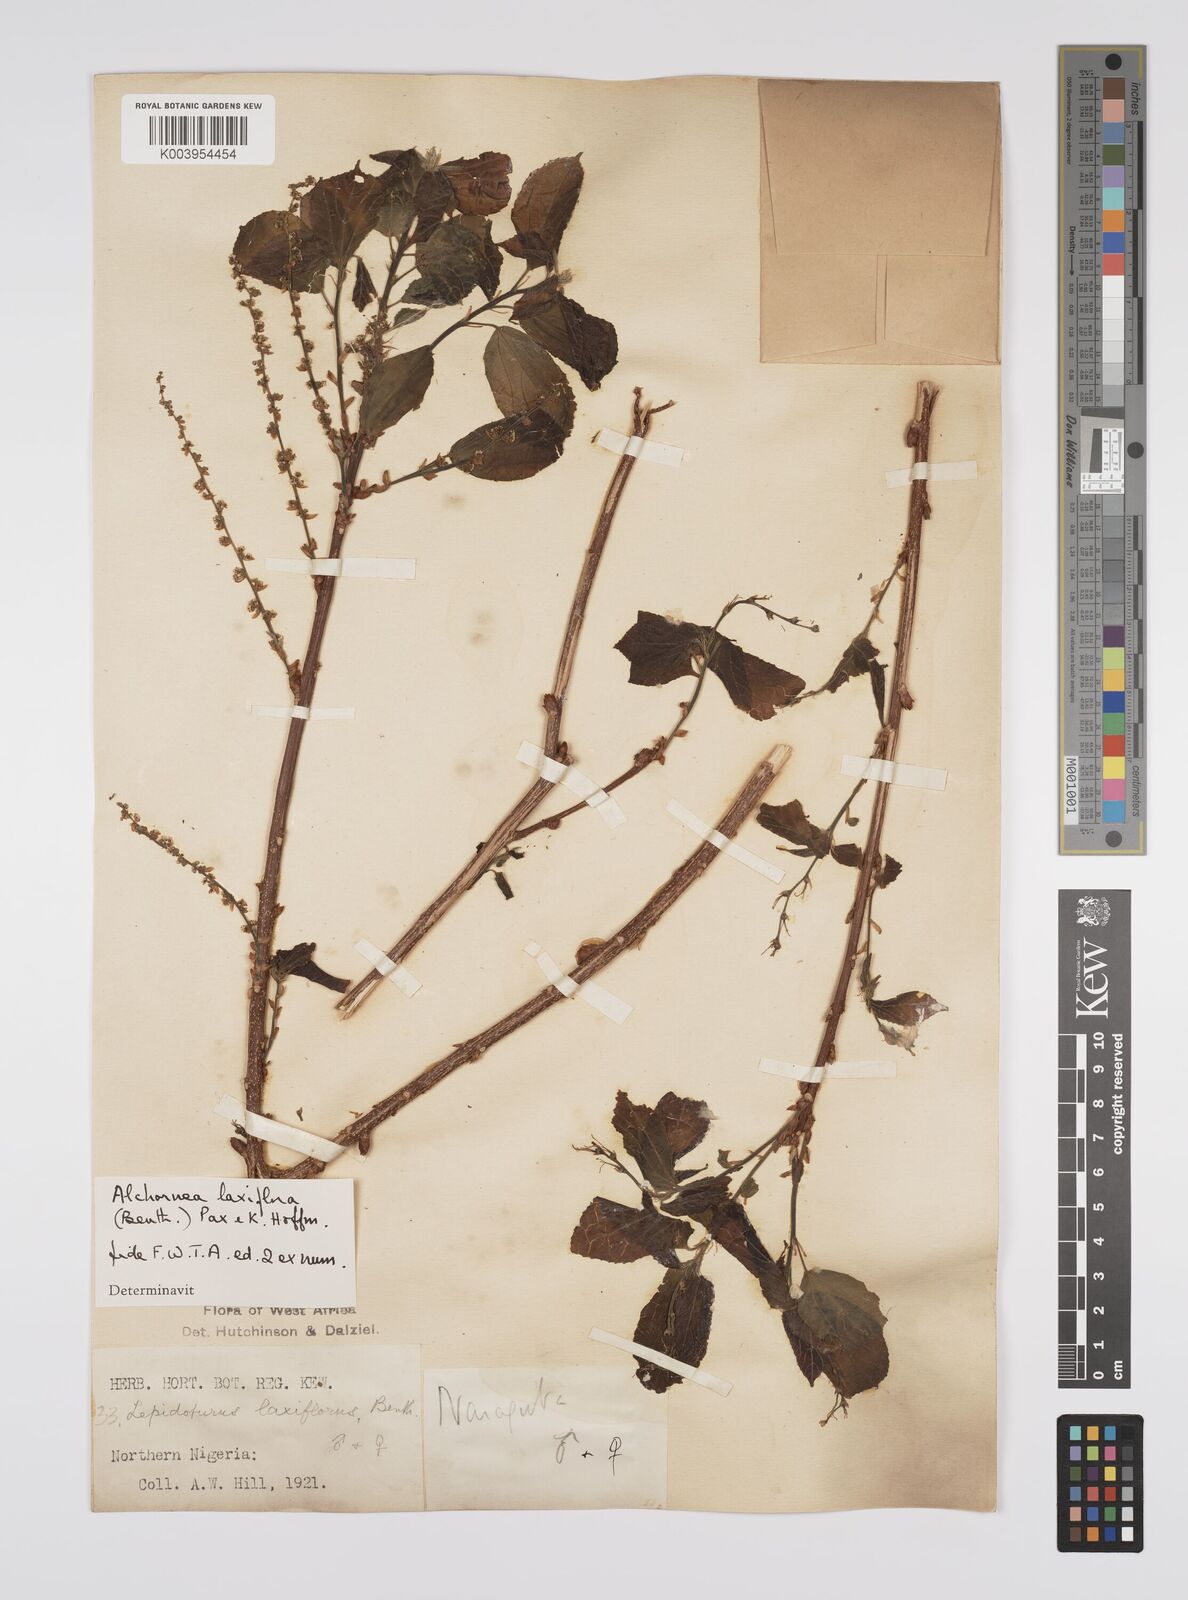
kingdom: Plantae
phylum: Tracheophyta
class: Magnoliopsida
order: Malpighiales
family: Euphorbiaceae
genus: Alchornea
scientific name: Alchornea laxiflora
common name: Lowveld bead-string
